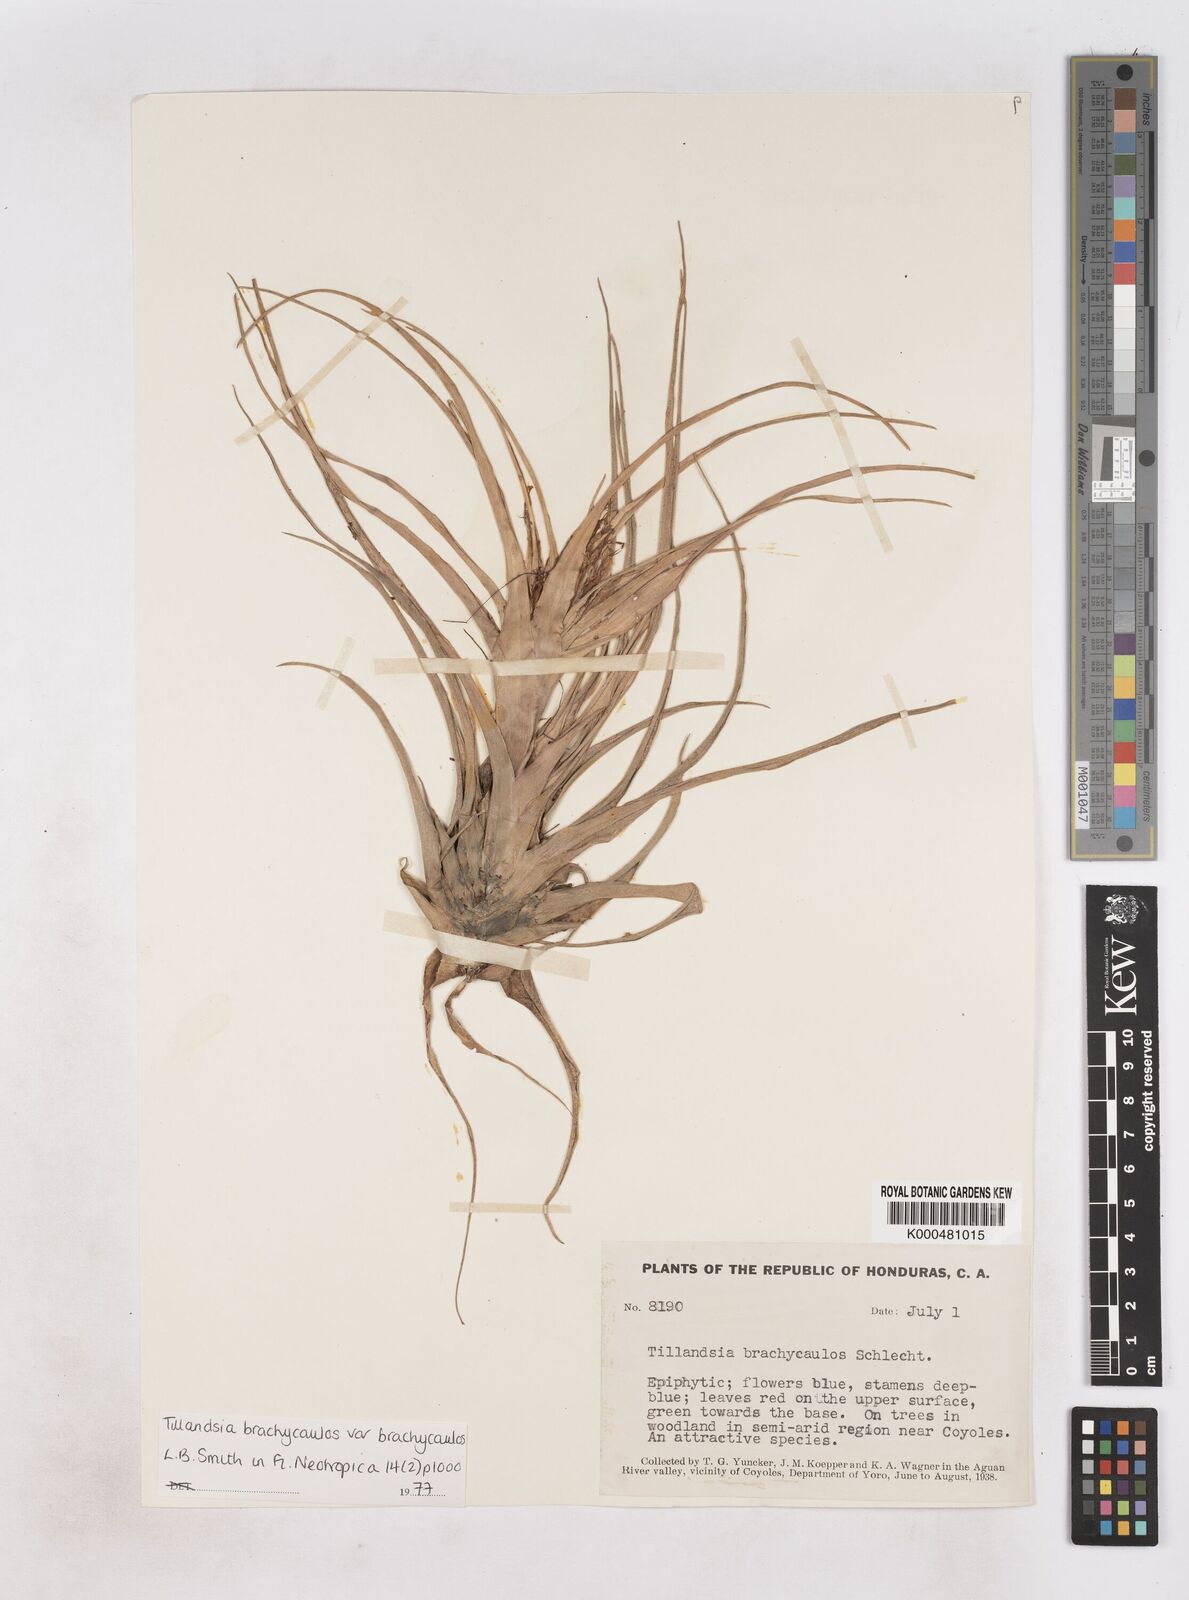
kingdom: Plantae
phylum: Tracheophyta
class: Liliopsida
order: Poales
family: Bromeliaceae
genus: Tillandsia
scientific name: Tillandsia
